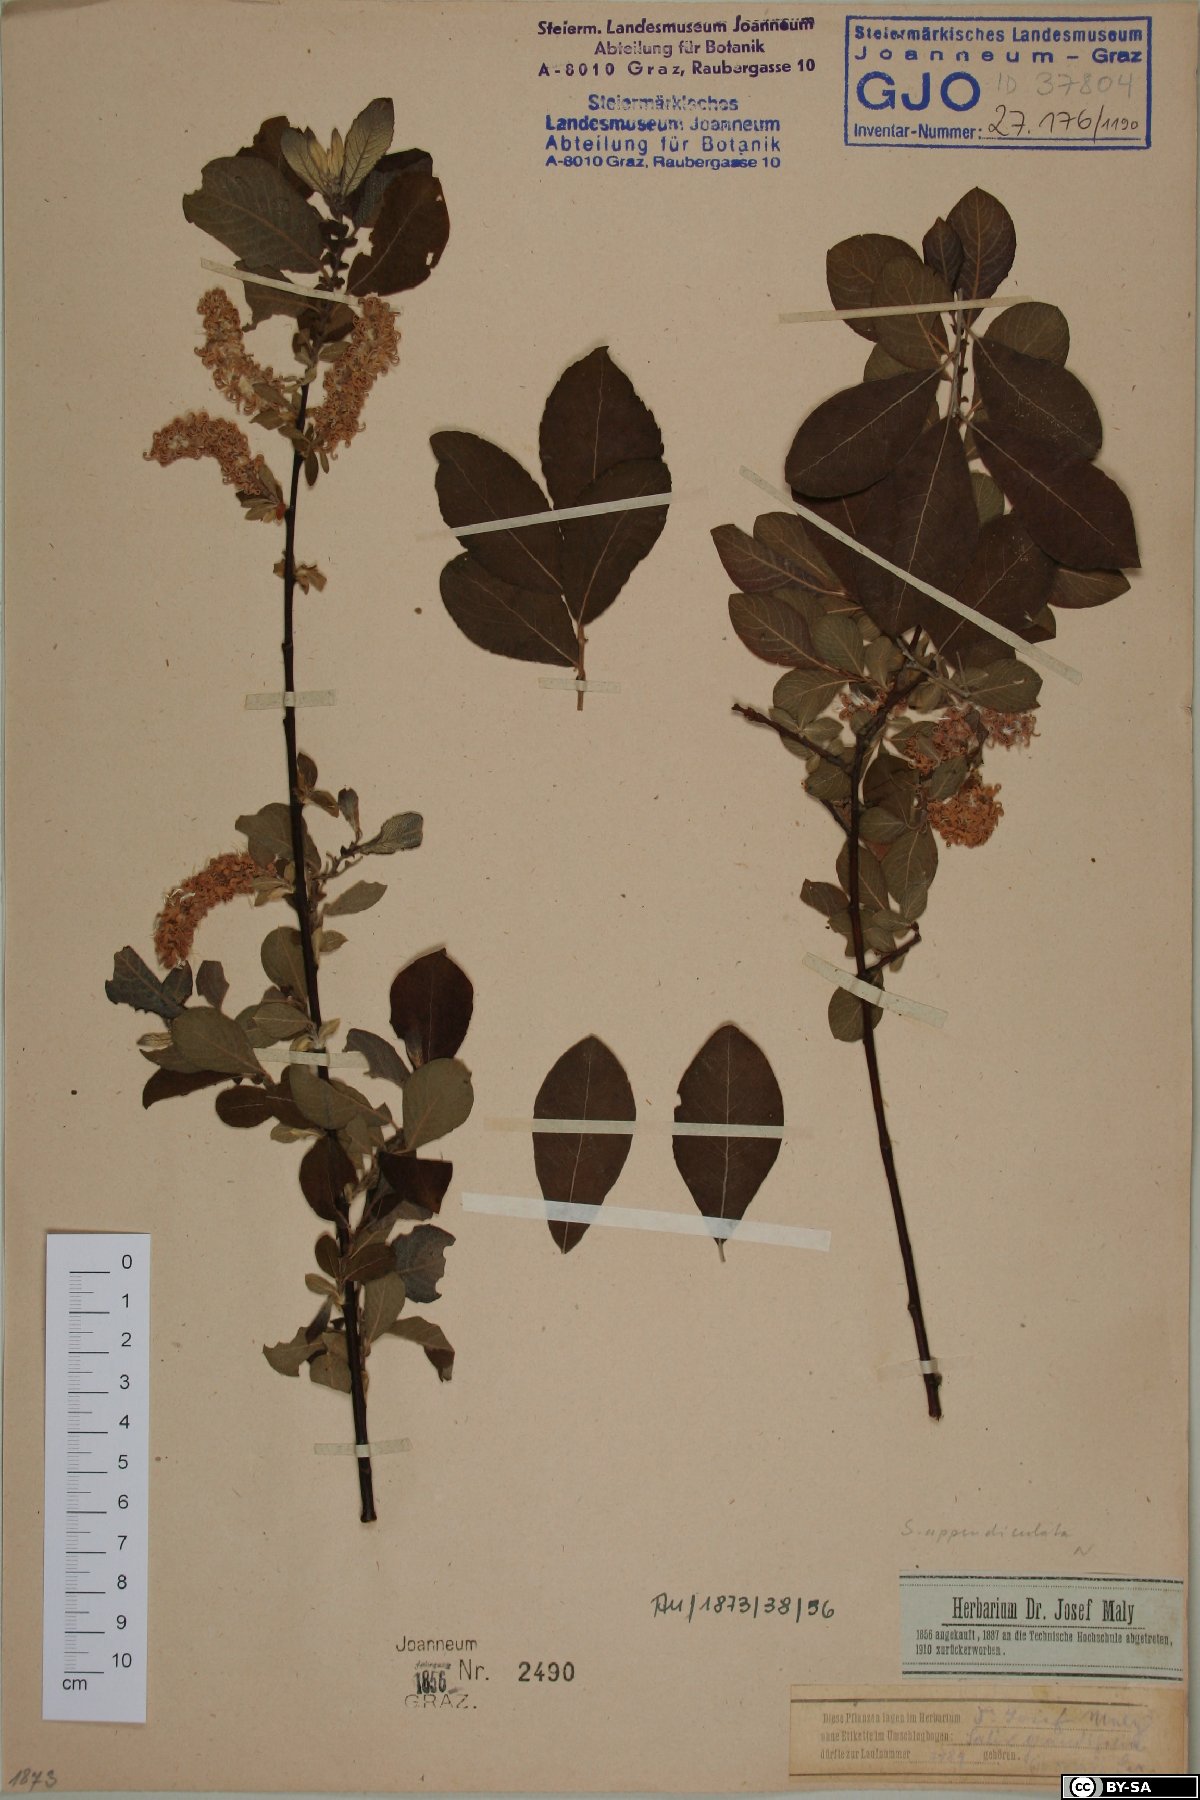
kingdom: Plantae
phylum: Tracheophyta
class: Magnoliopsida
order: Malpighiales
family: Salicaceae
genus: Salix
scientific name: Salix aurita
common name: Eared willow
